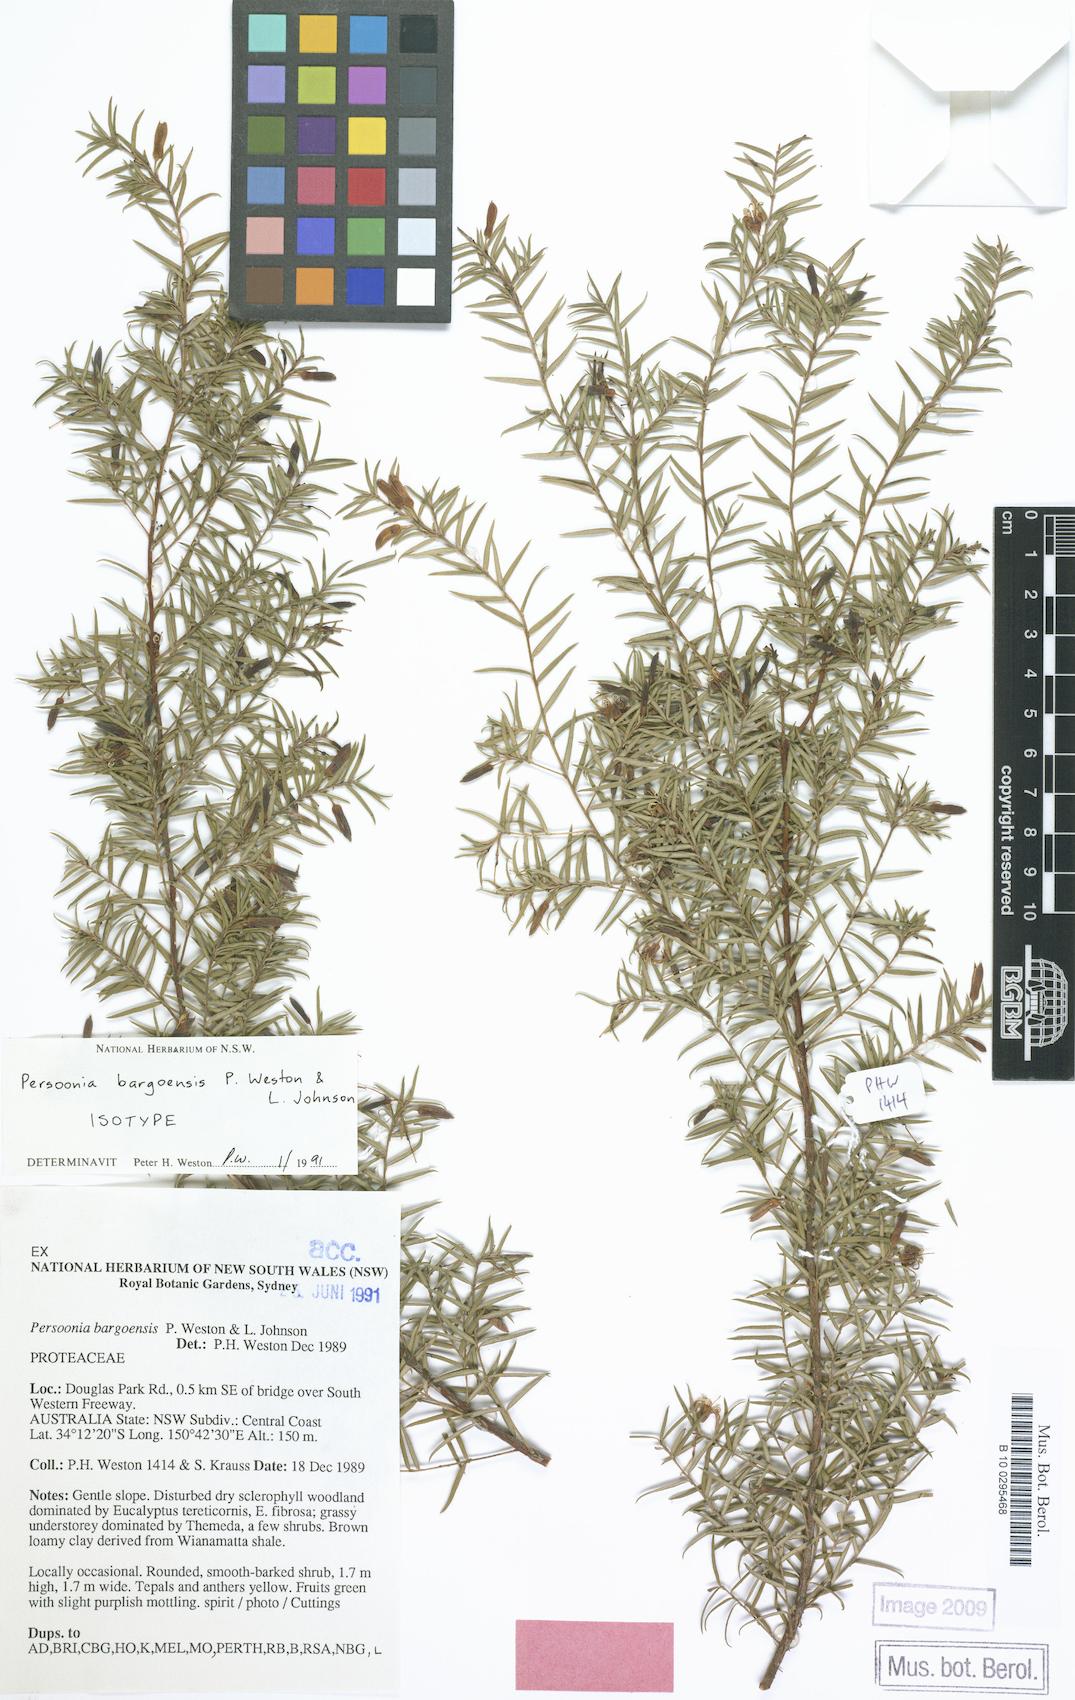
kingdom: Plantae
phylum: Tracheophyta
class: Magnoliopsida
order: Proteales
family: Proteaceae
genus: Persoonia
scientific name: Persoonia bargoensis
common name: Bargo geebung
